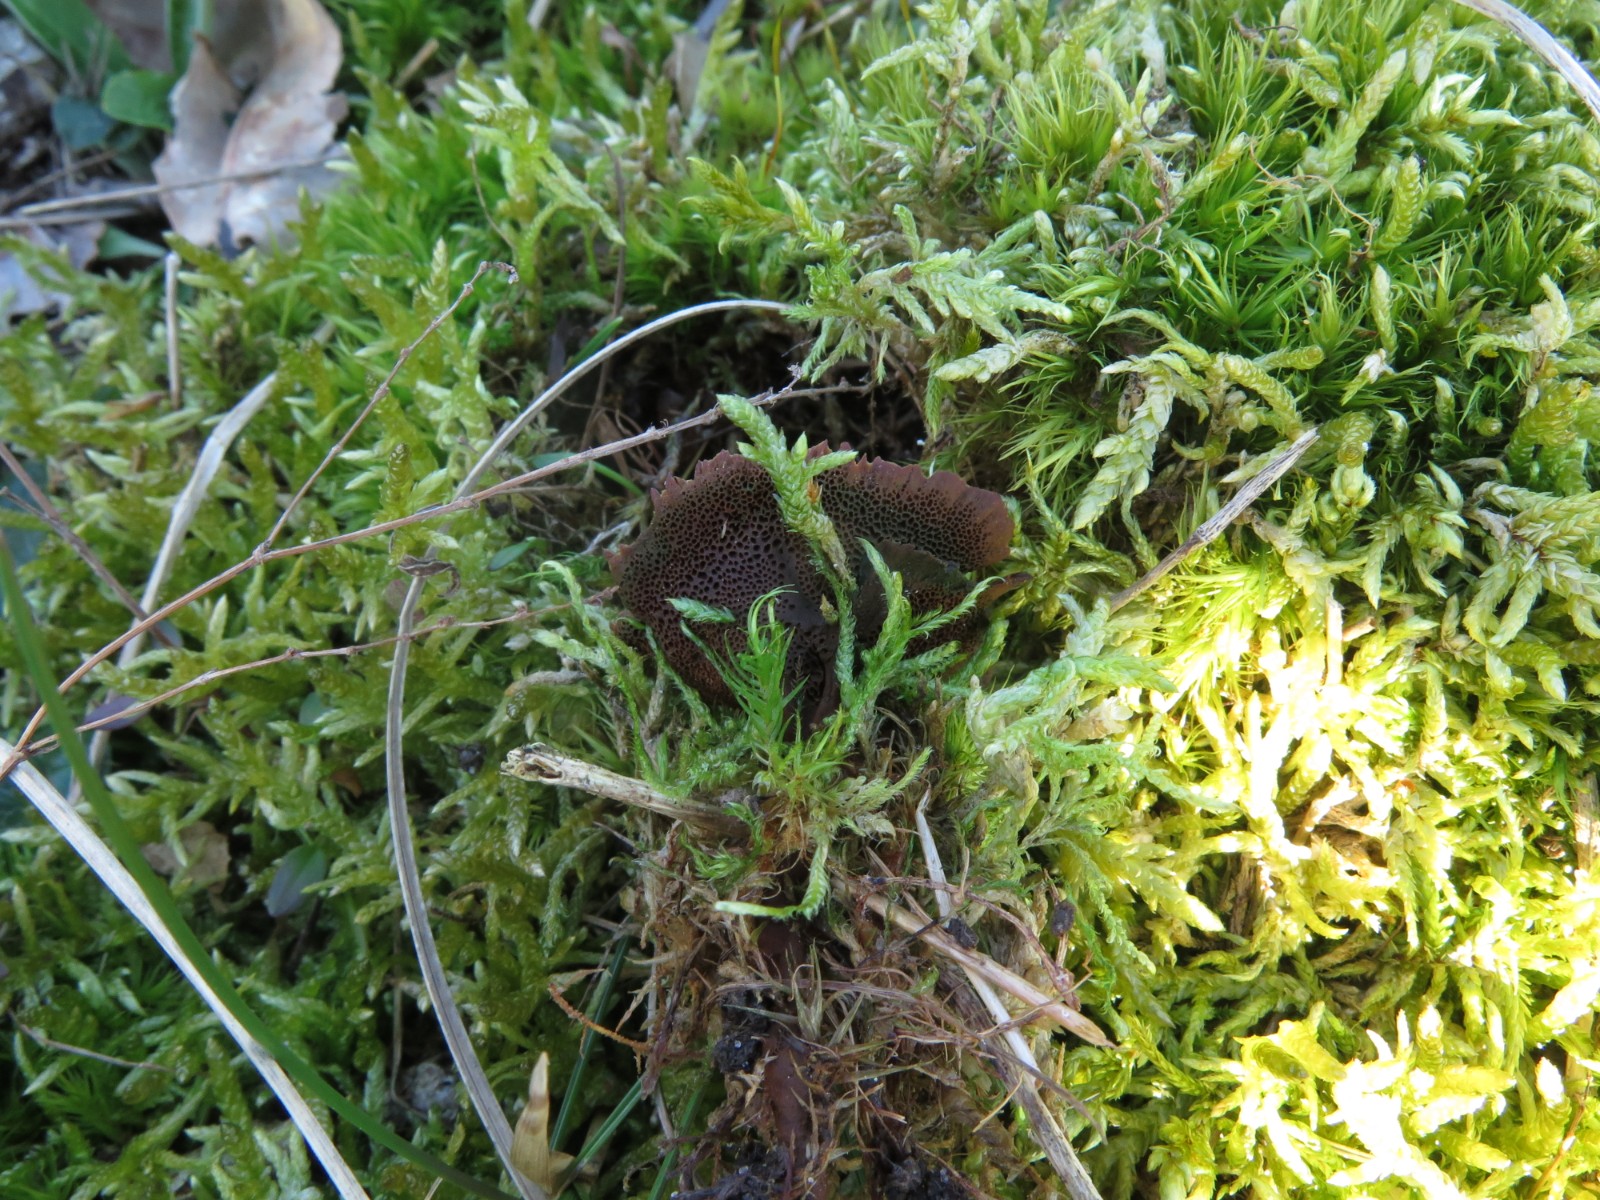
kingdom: Fungi
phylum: Basidiomycota
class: Agaricomycetes
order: Hymenochaetales
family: Hymenochaetaceae
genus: Coltricia
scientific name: Coltricia perennis
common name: almindelig sandporesvamp
